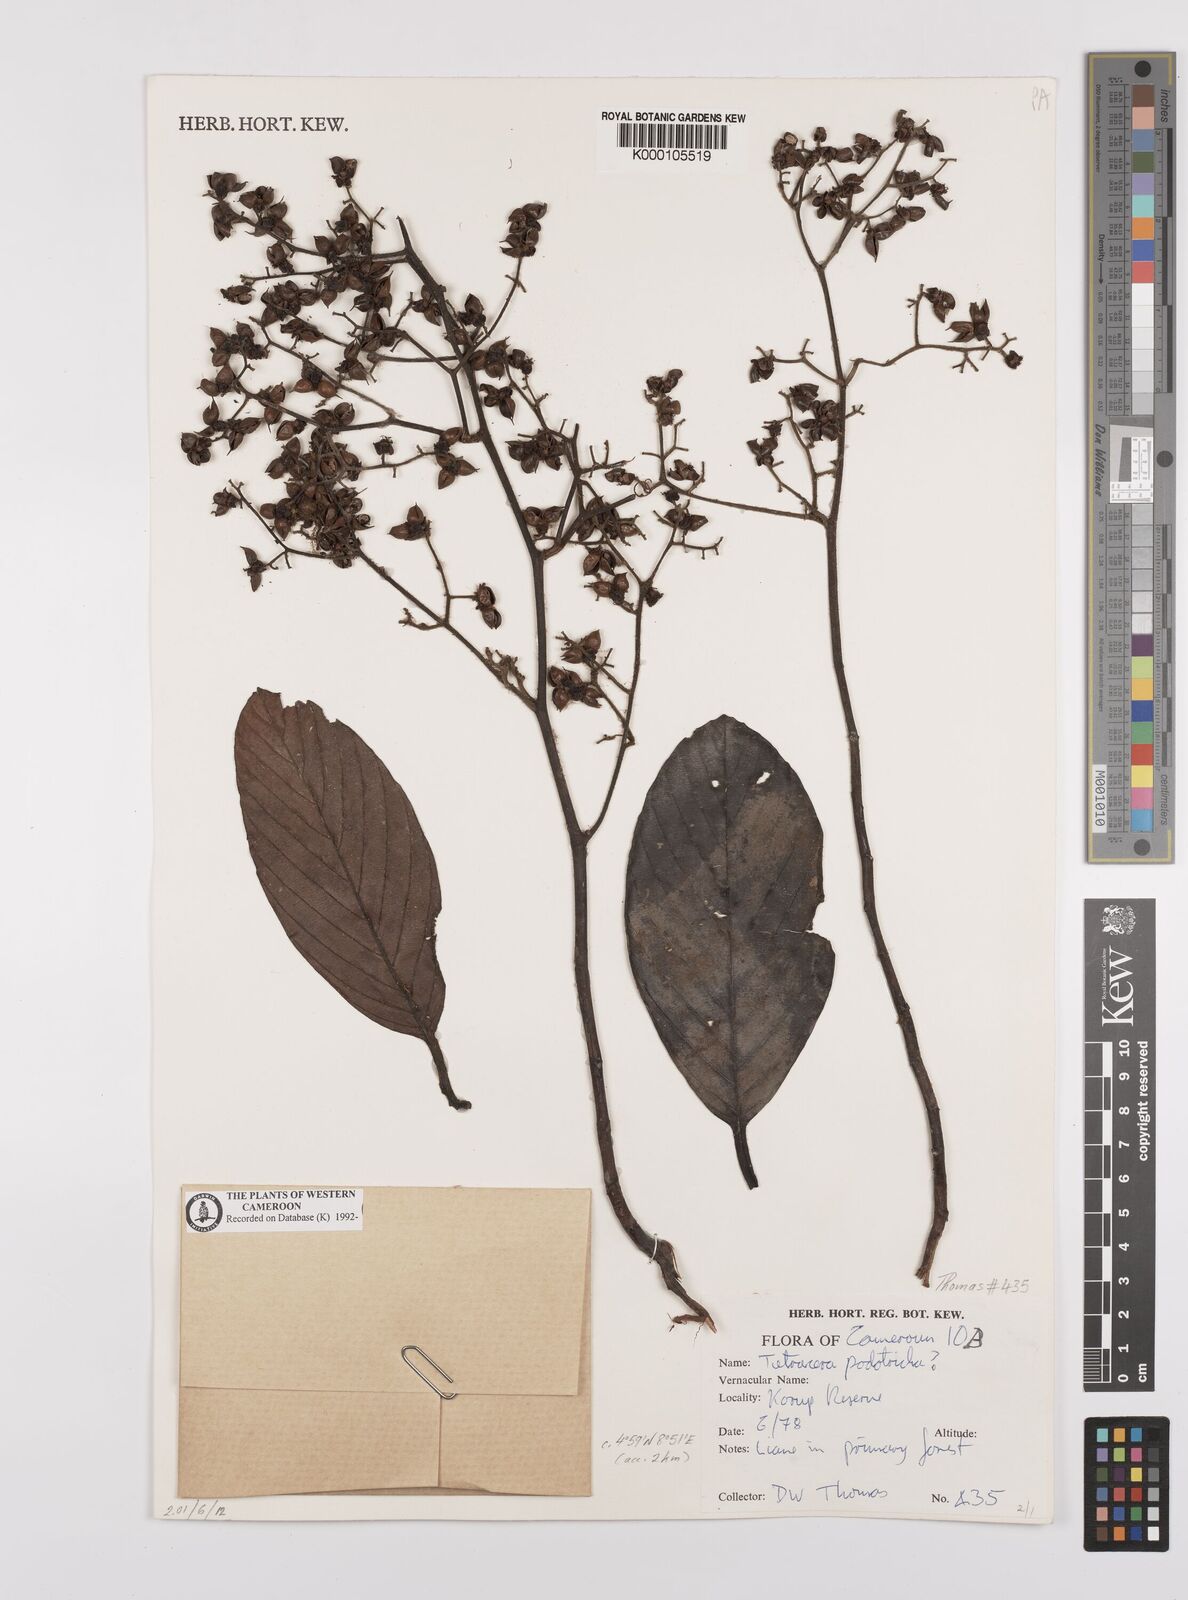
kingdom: Plantae
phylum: Tracheophyta
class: Magnoliopsida
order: Dilleniales
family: Dilleniaceae
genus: Tetracera
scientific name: Tetracera alnifolia
